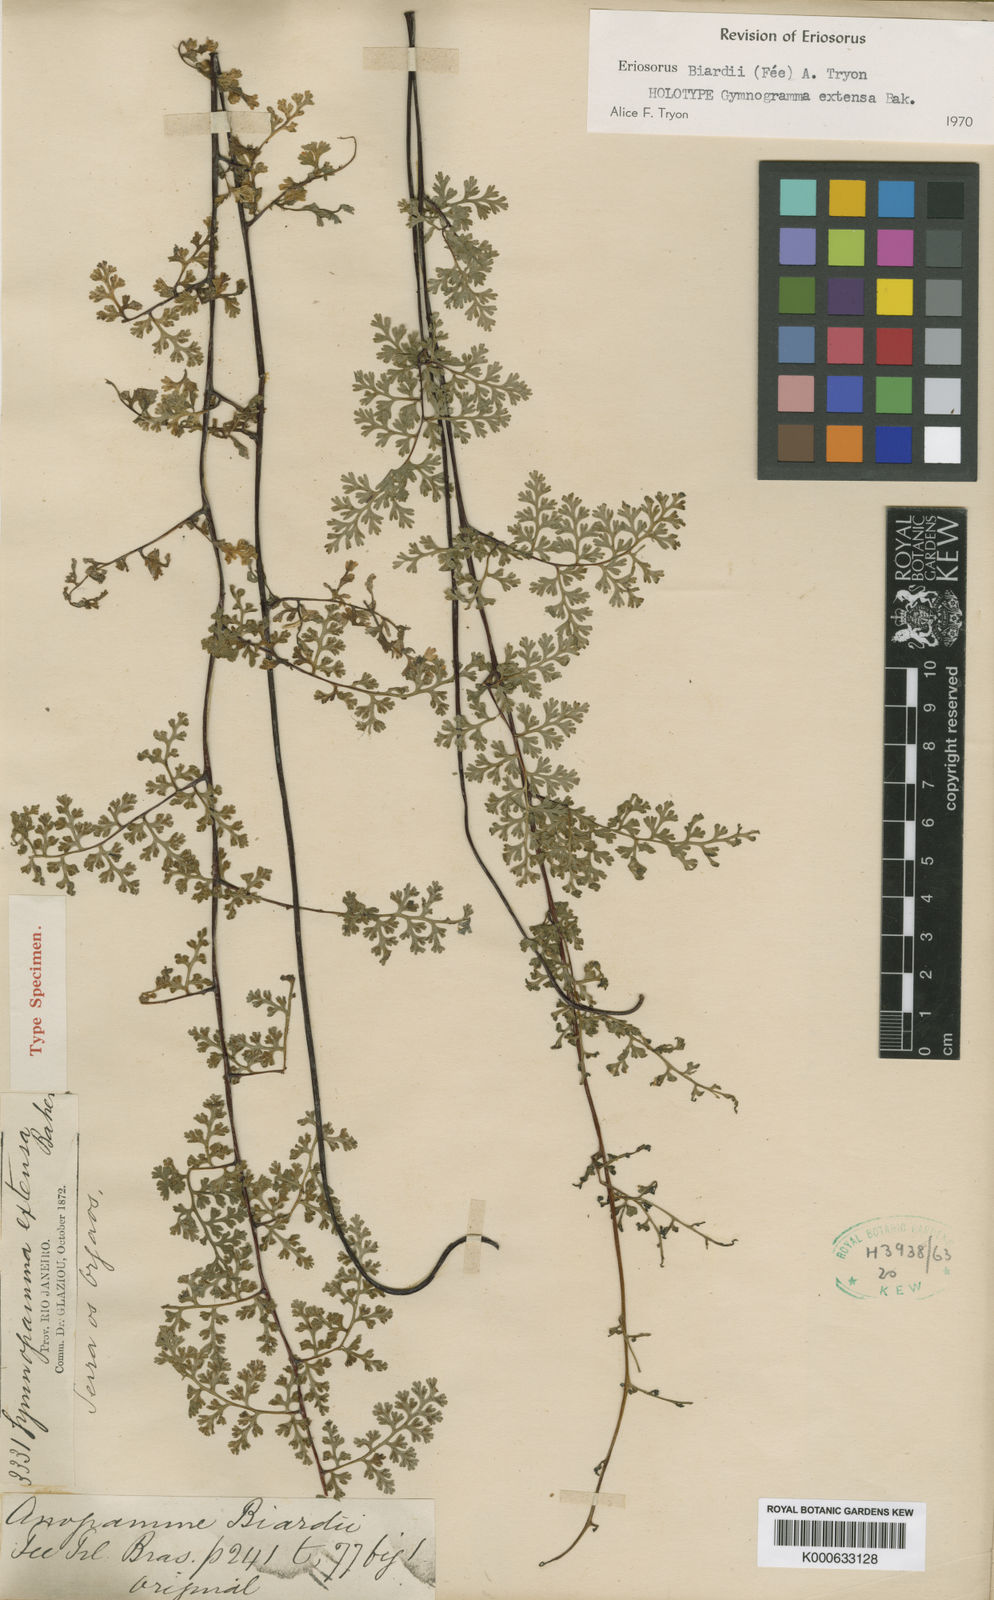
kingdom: Plantae
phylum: Tracheophyta
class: Polypodiopsida
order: Polypodiales
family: Pteridaceae
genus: Jamesonia
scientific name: Jamesonia
